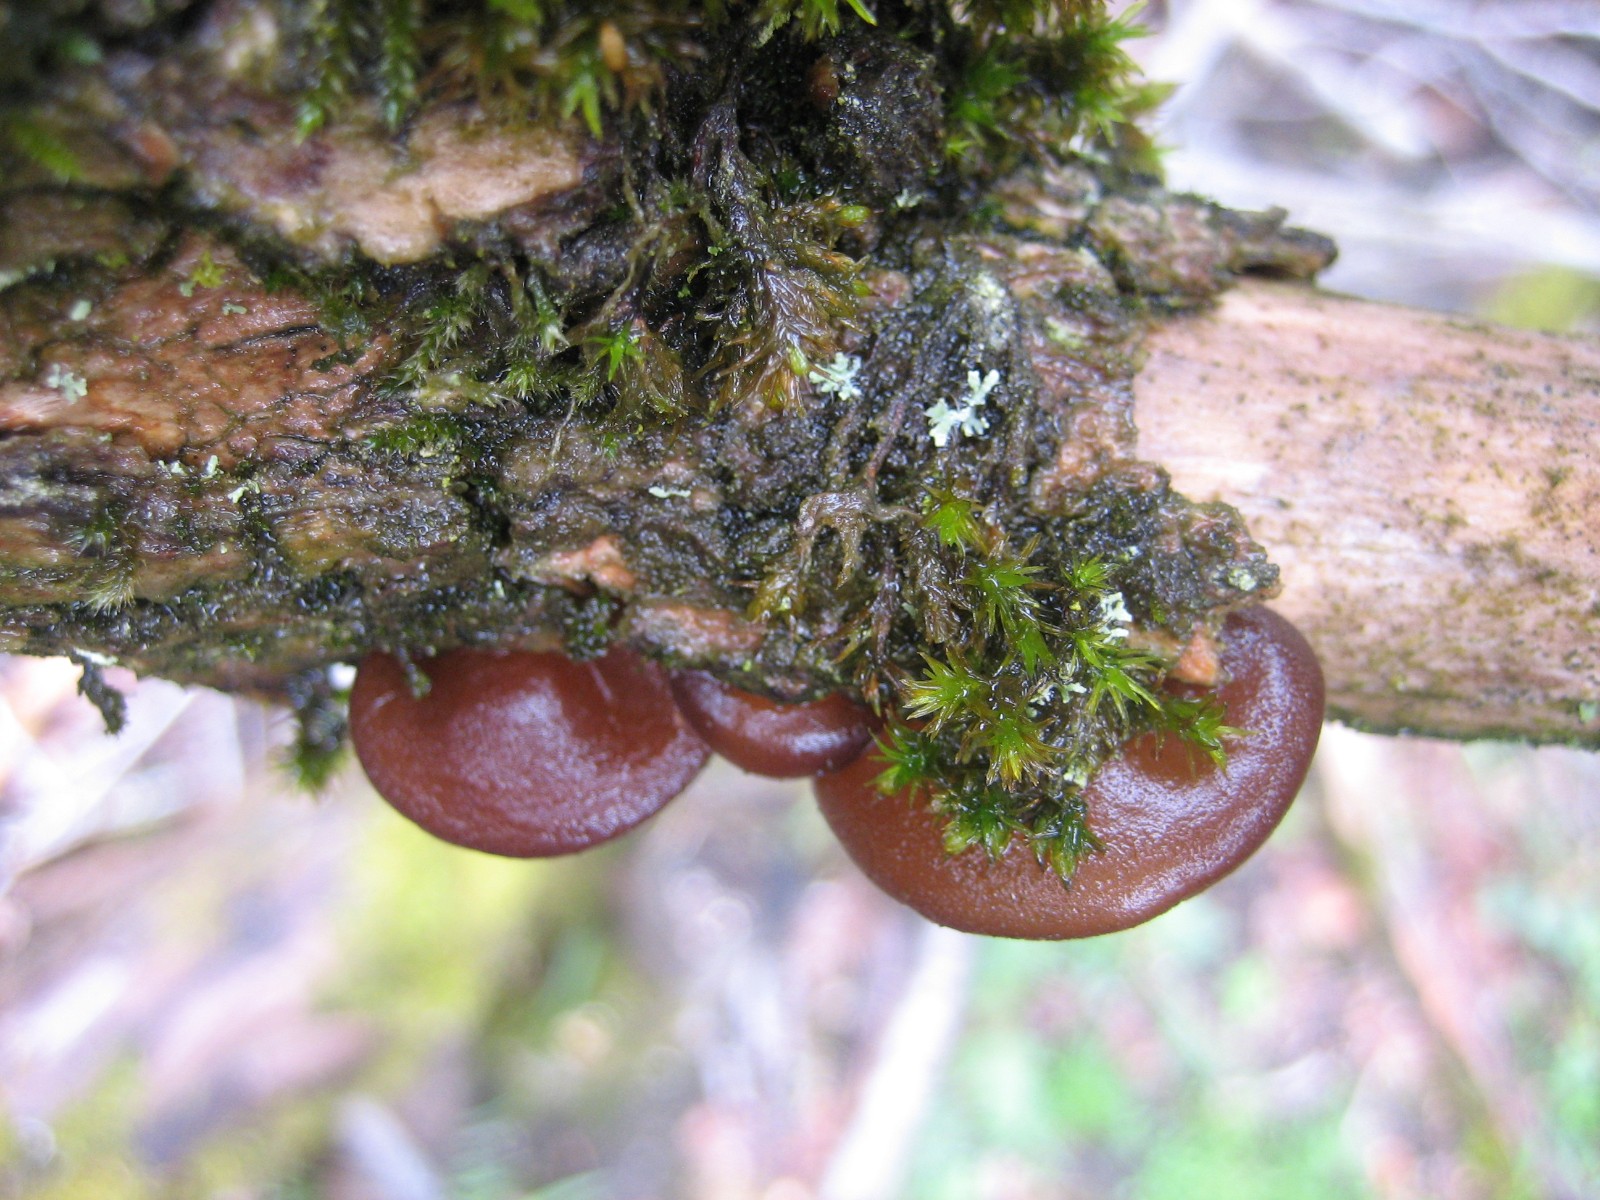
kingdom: Fungi
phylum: Basidiomycota
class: Agaricomycetes
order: Auriculariales
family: Auriculariaceae
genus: Auricularia
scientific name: Auricularia auricula-judae
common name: almindelig judasøre
